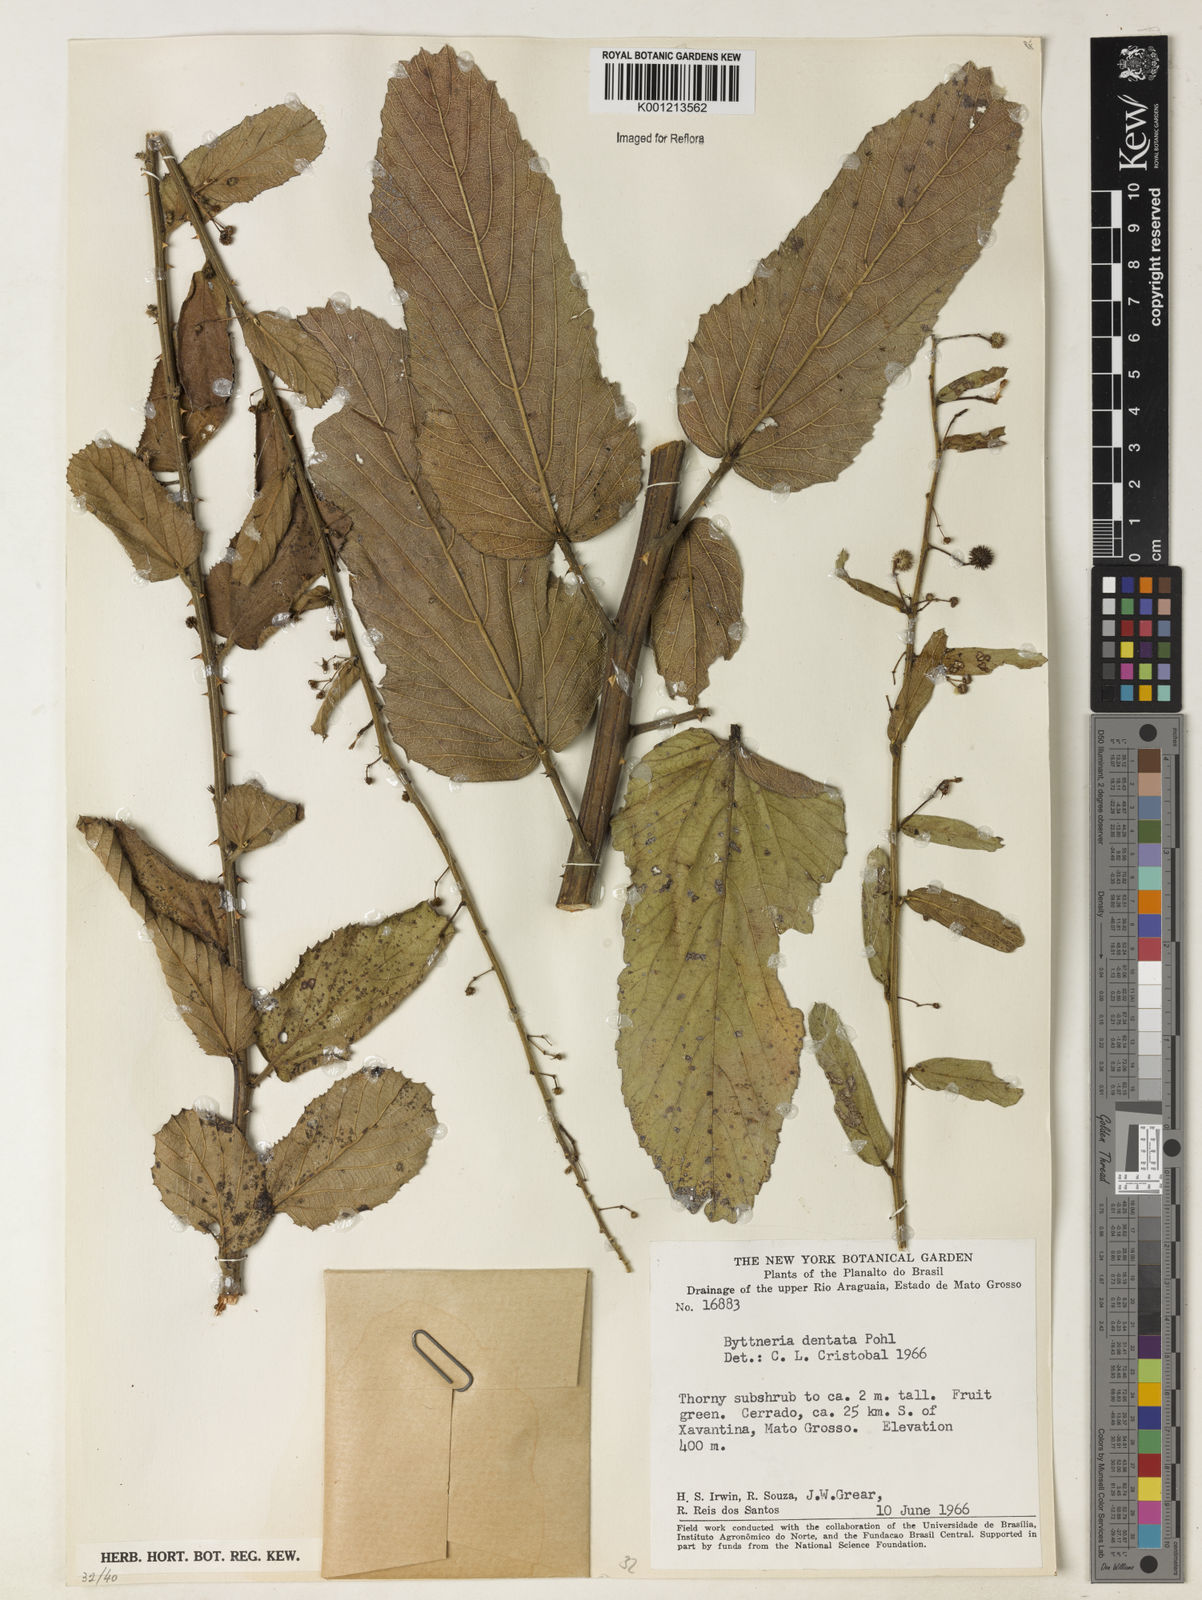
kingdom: Plantae
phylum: Tracheophyta
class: Magnoliopsida
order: Malvales
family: Malvaceae
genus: Byttneria
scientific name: Byttneria
